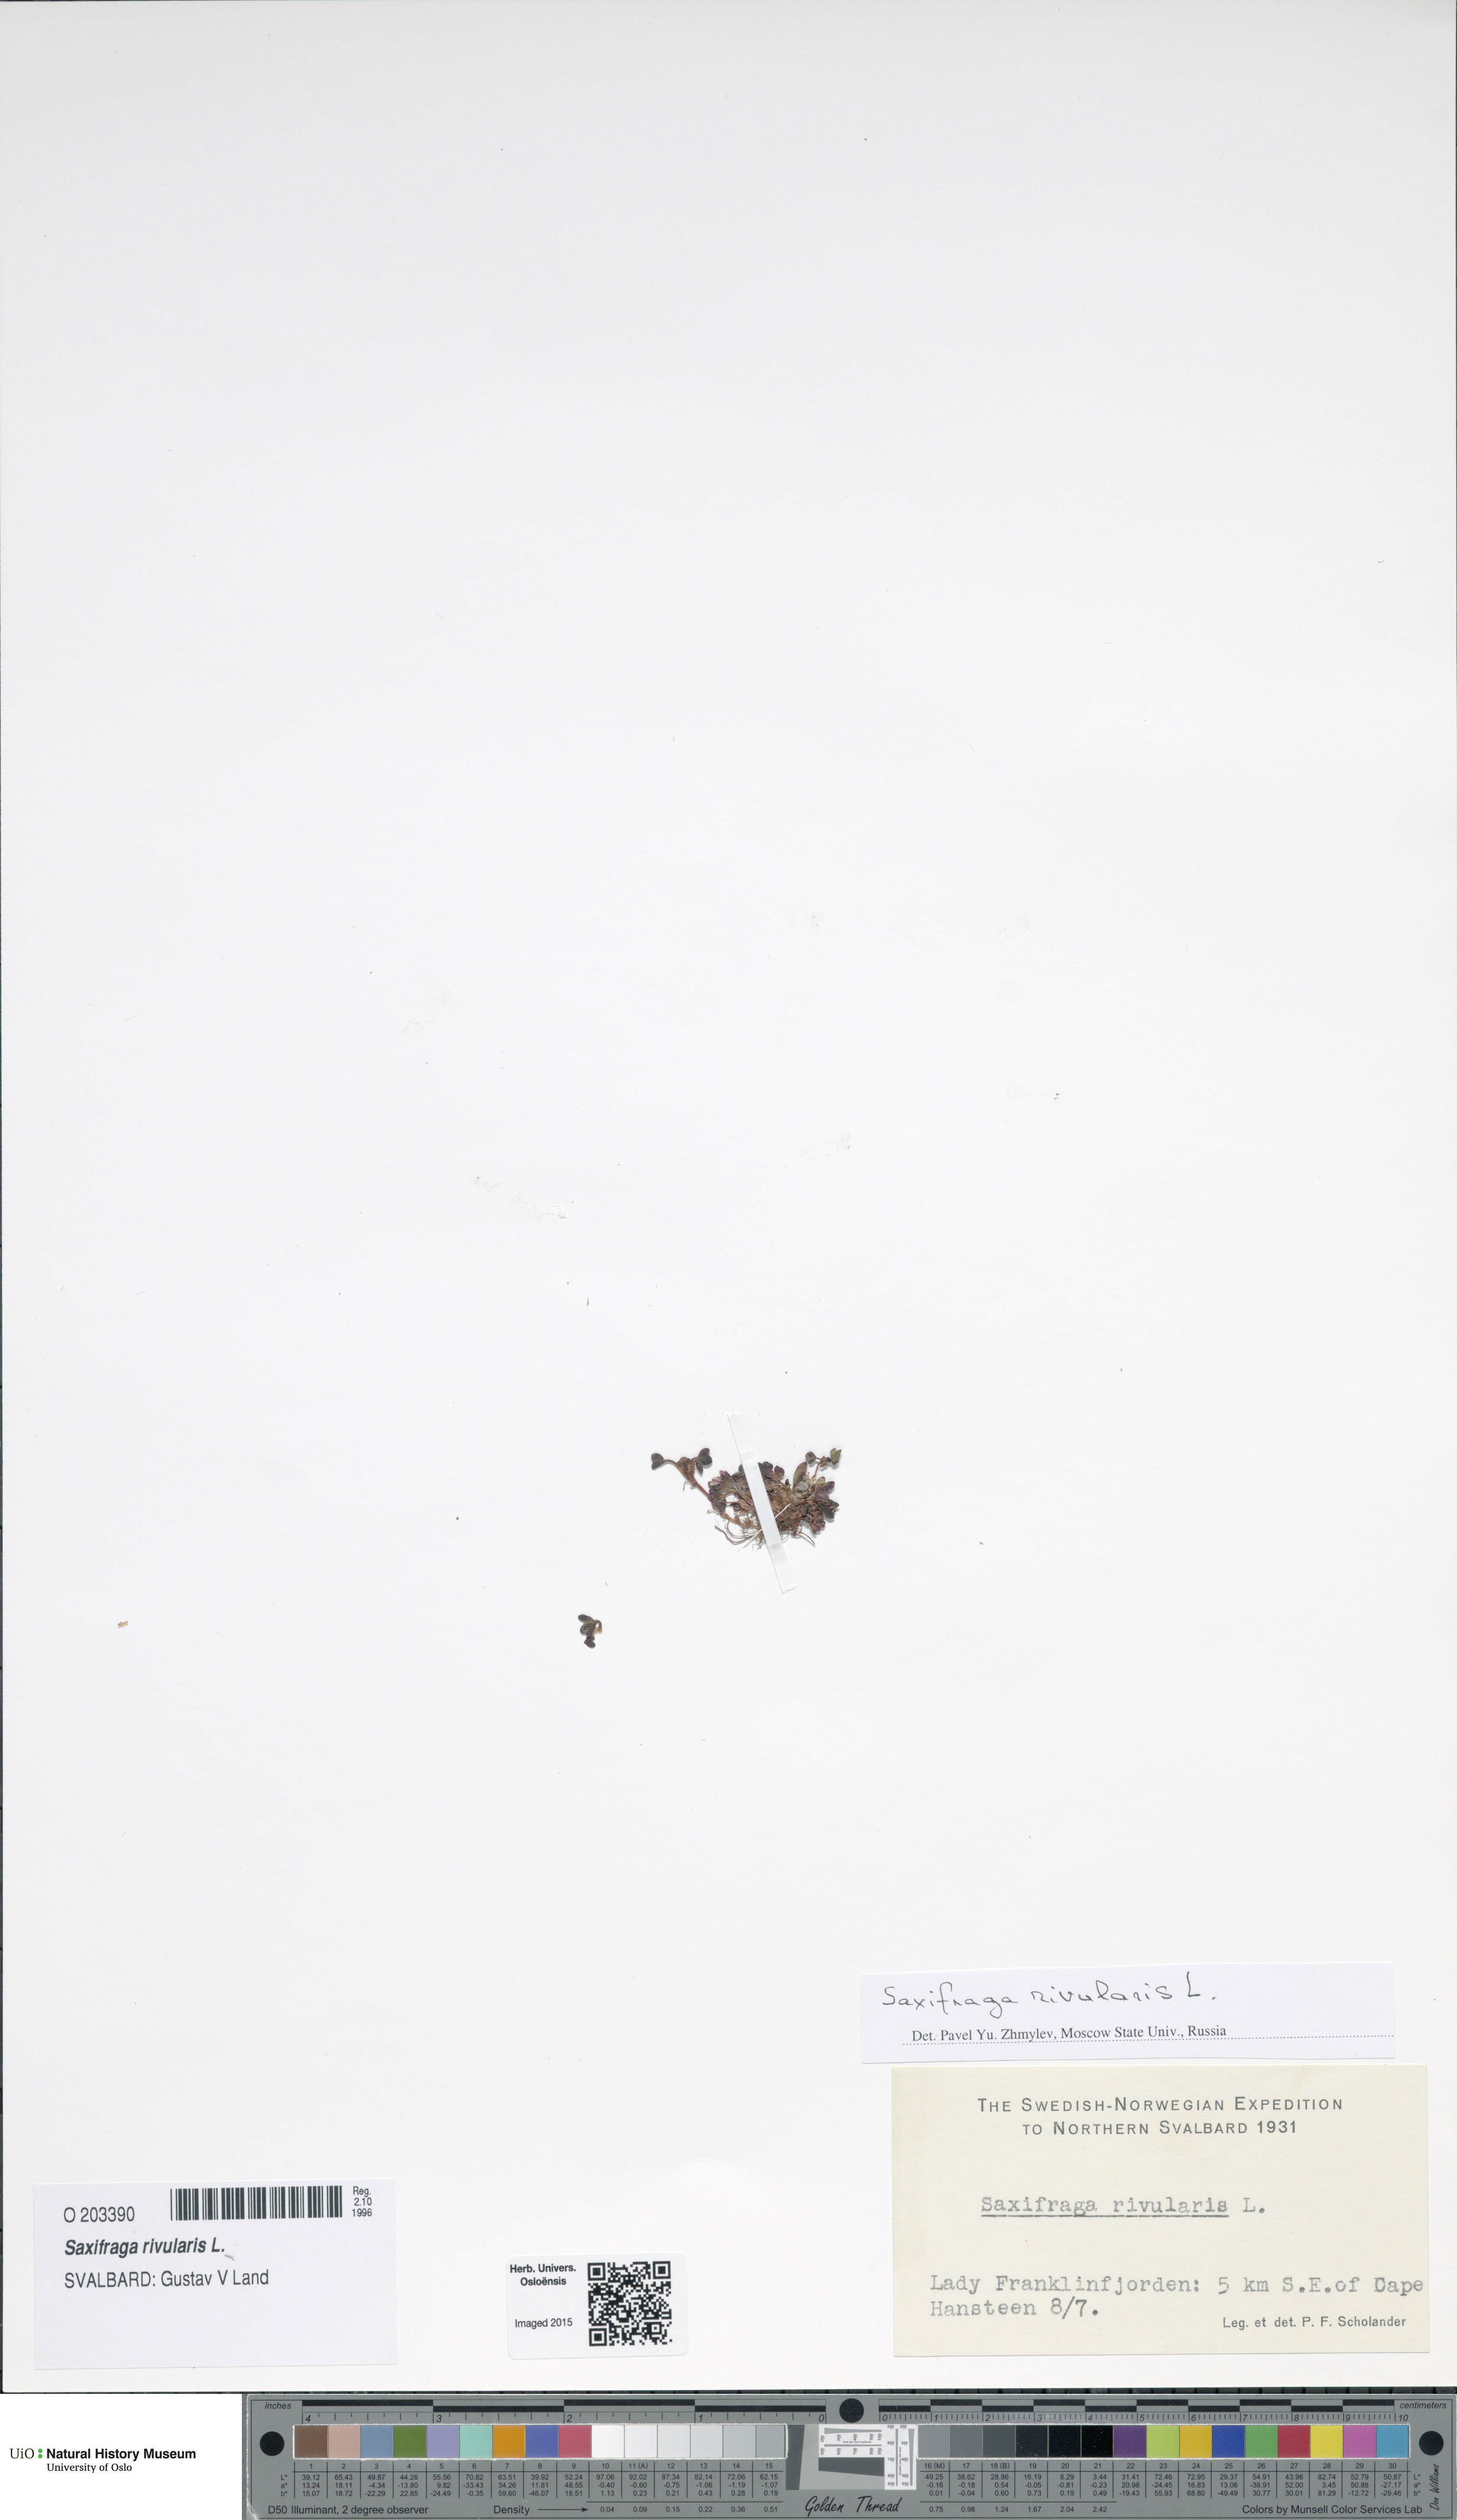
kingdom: Plantae
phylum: Tracheophyta
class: Magnoliopsida
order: Saxifragales
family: Saxifragaceae
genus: Saxifraga
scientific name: Saxifraga rivularis
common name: Highland saxifrage
